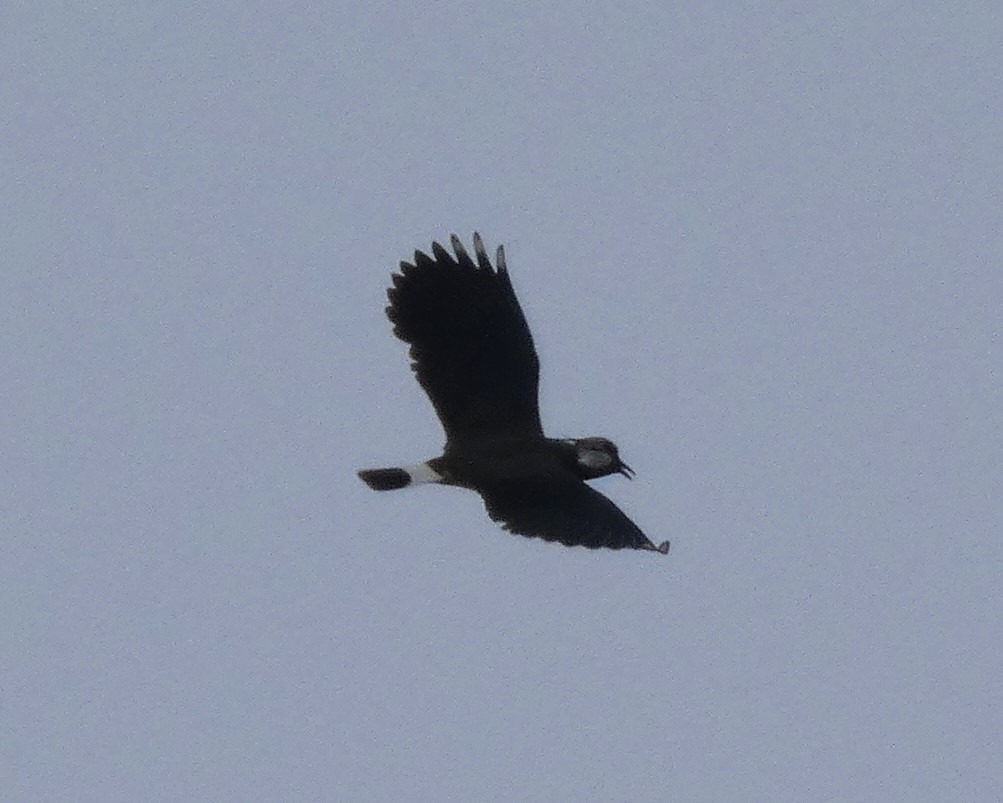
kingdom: Animalia
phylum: Chordata
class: Aves
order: Charadriiformes
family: Charadriidae
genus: Vanellus
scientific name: Vanellus vanellus
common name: Vibe
